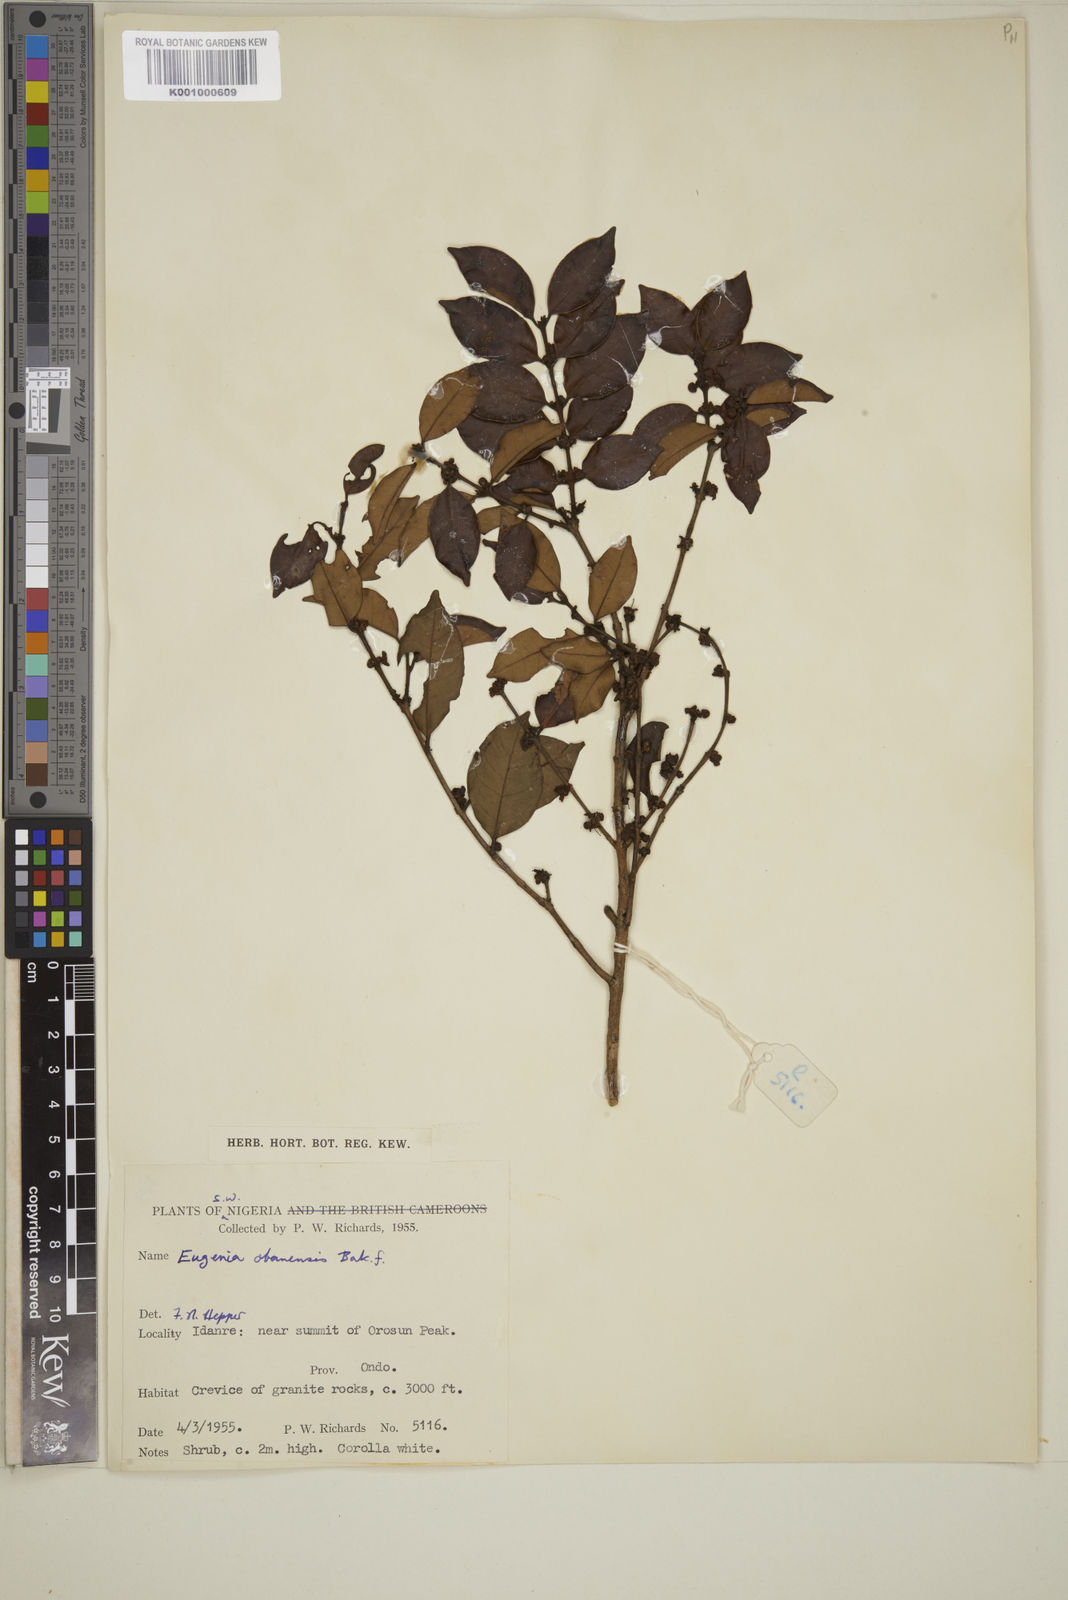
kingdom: Plantae
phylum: Tracheophyta
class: Magnoliopsida
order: Myrtales
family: Myrtaceae
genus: Eugenia
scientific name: Eugenia obanensis
